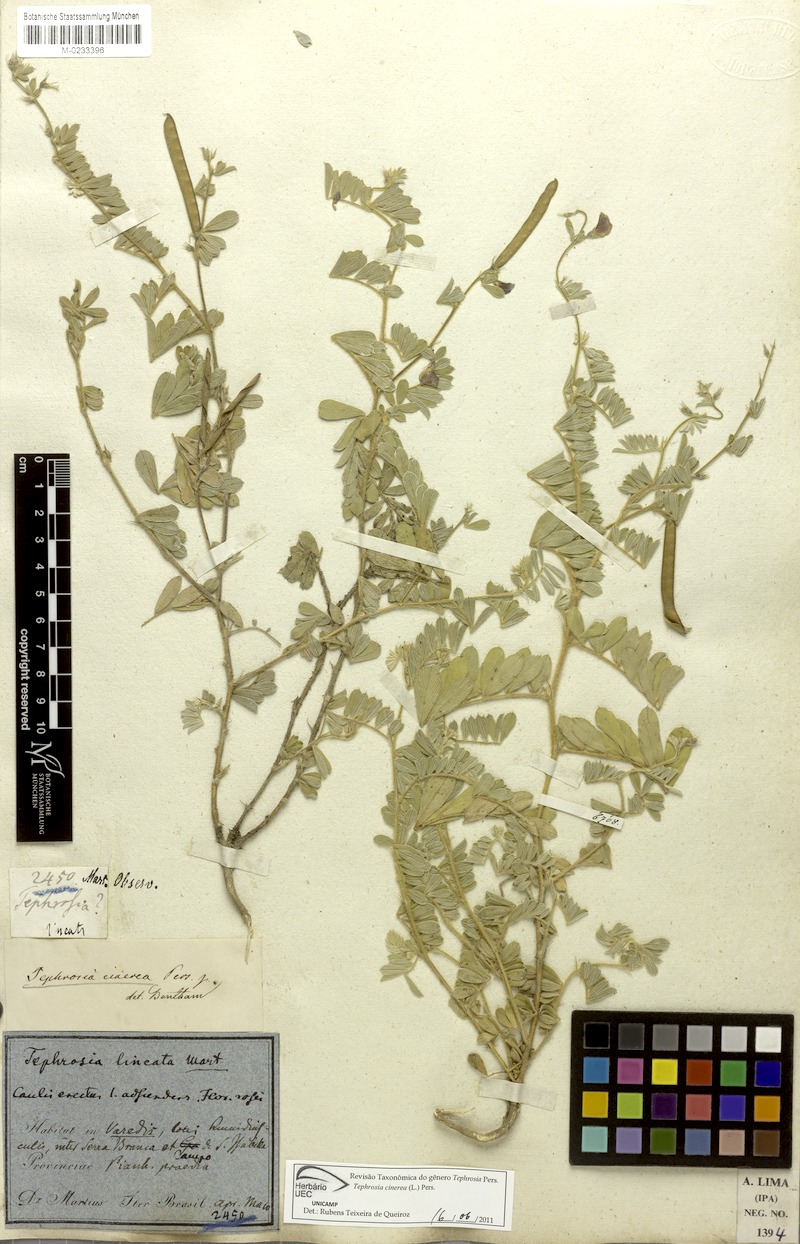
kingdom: Plantae
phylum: Tracheophyta
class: Magnoliopsida
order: Fabales
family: Fabaceae
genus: Tephrosia
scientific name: Tephrosia cinerea
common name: Ashen hoarypea
